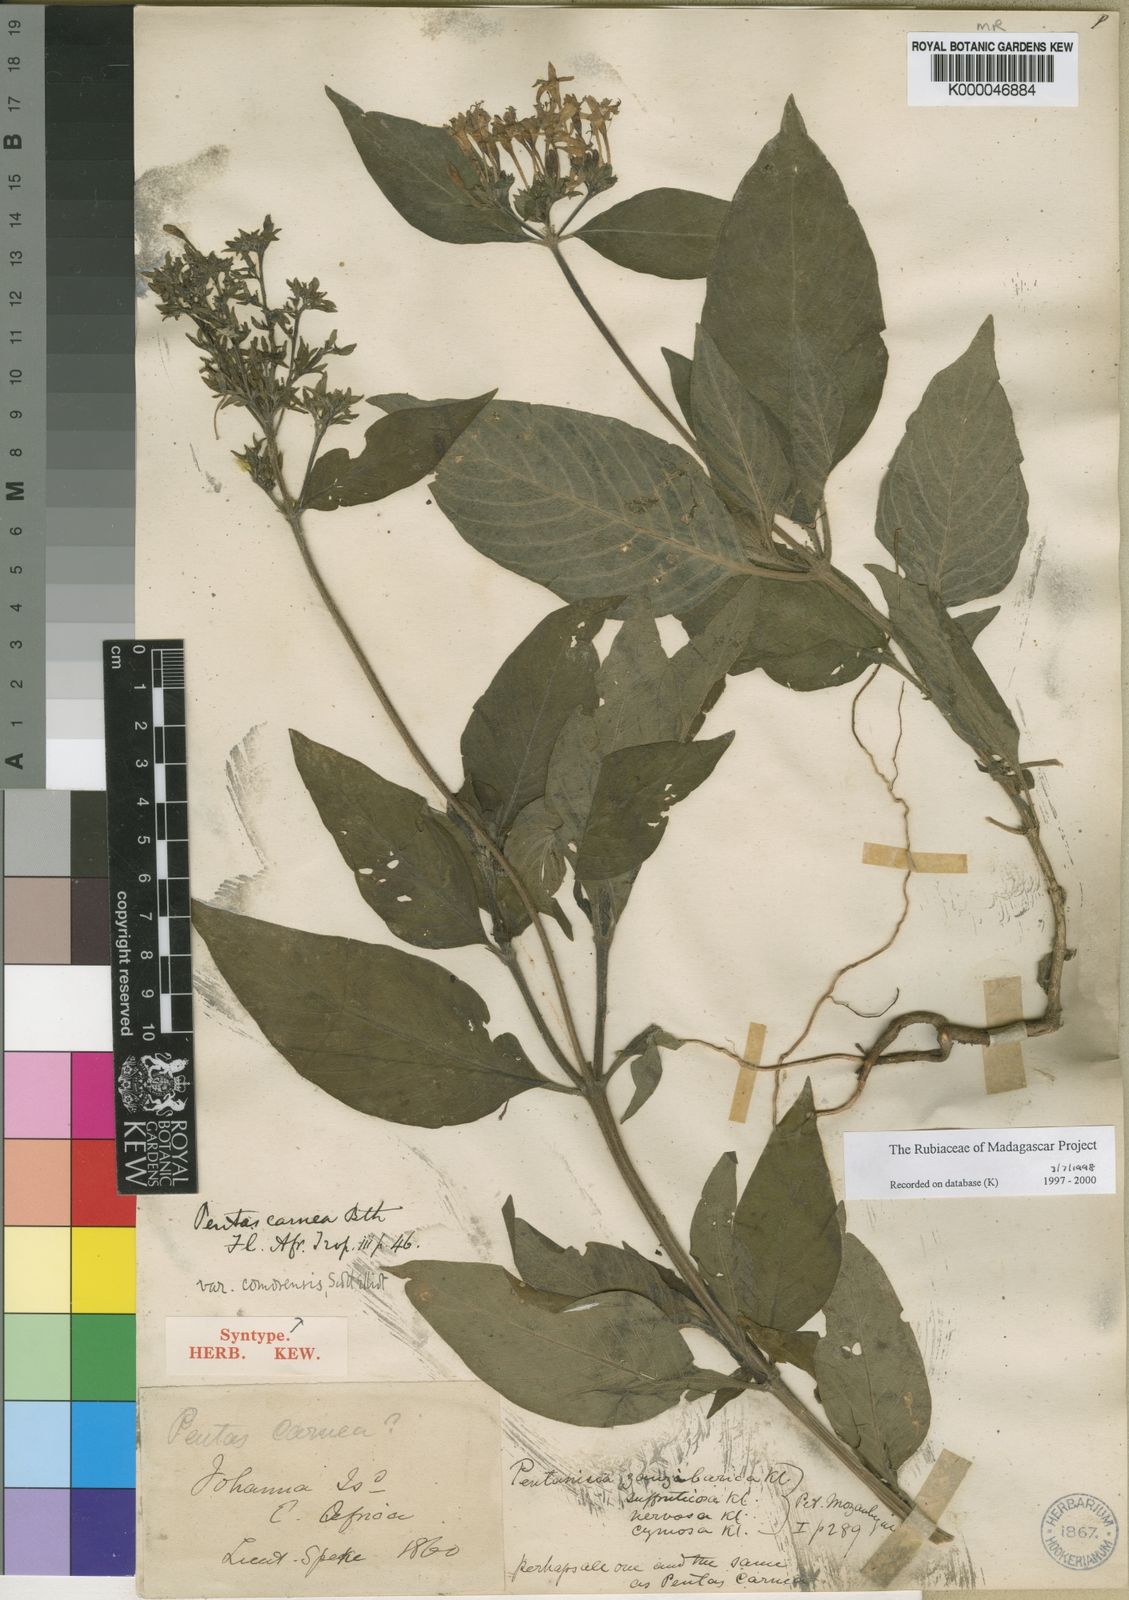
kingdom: Plantae
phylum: Tracheophyta
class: Magnoliopsida
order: Gentianales
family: Rubiaceae
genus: Pentas
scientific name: Pentas lanceolata
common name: Egyptian starcluster
